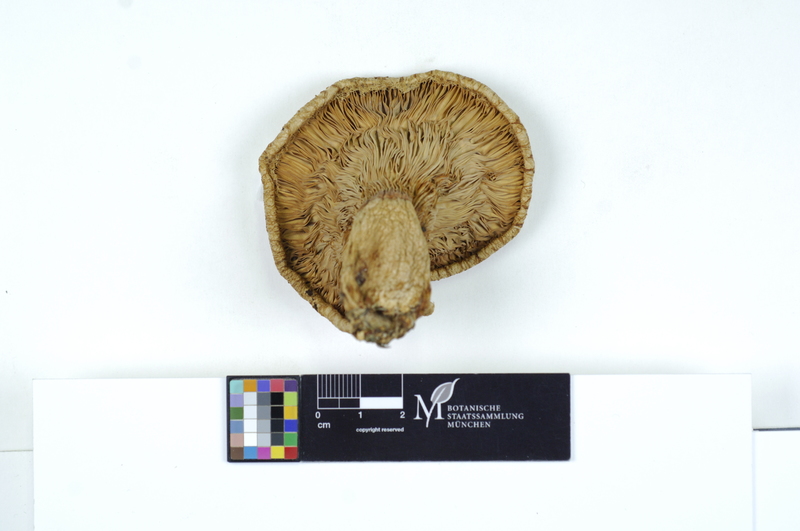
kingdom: Fungi
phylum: Basidiomycota
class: Agaricomycetes
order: Russulales
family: Russulaceae
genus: Lactarius
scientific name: Lactarius torminosus
